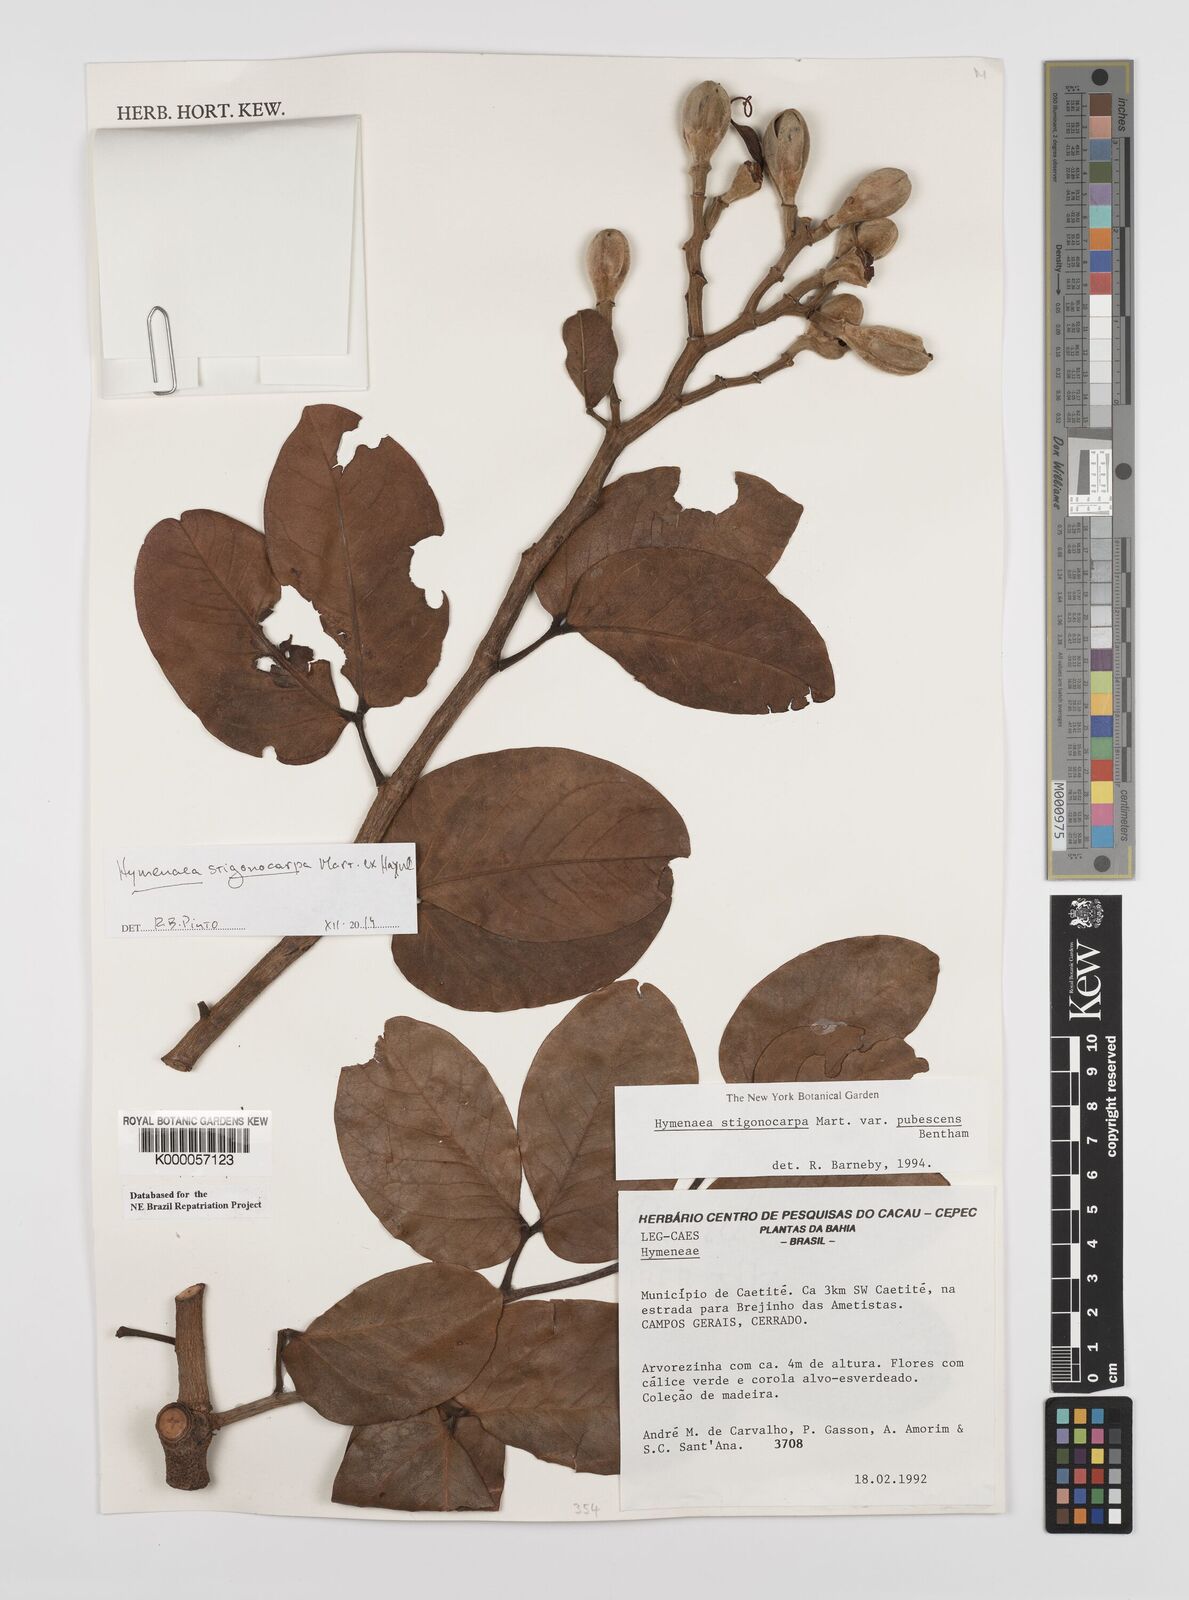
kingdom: Plantae
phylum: Tracheophyta
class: Magnoliopsida
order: Fabales
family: Fabaceae
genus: Hymenaea
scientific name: Hymenaea stigonocarpa
